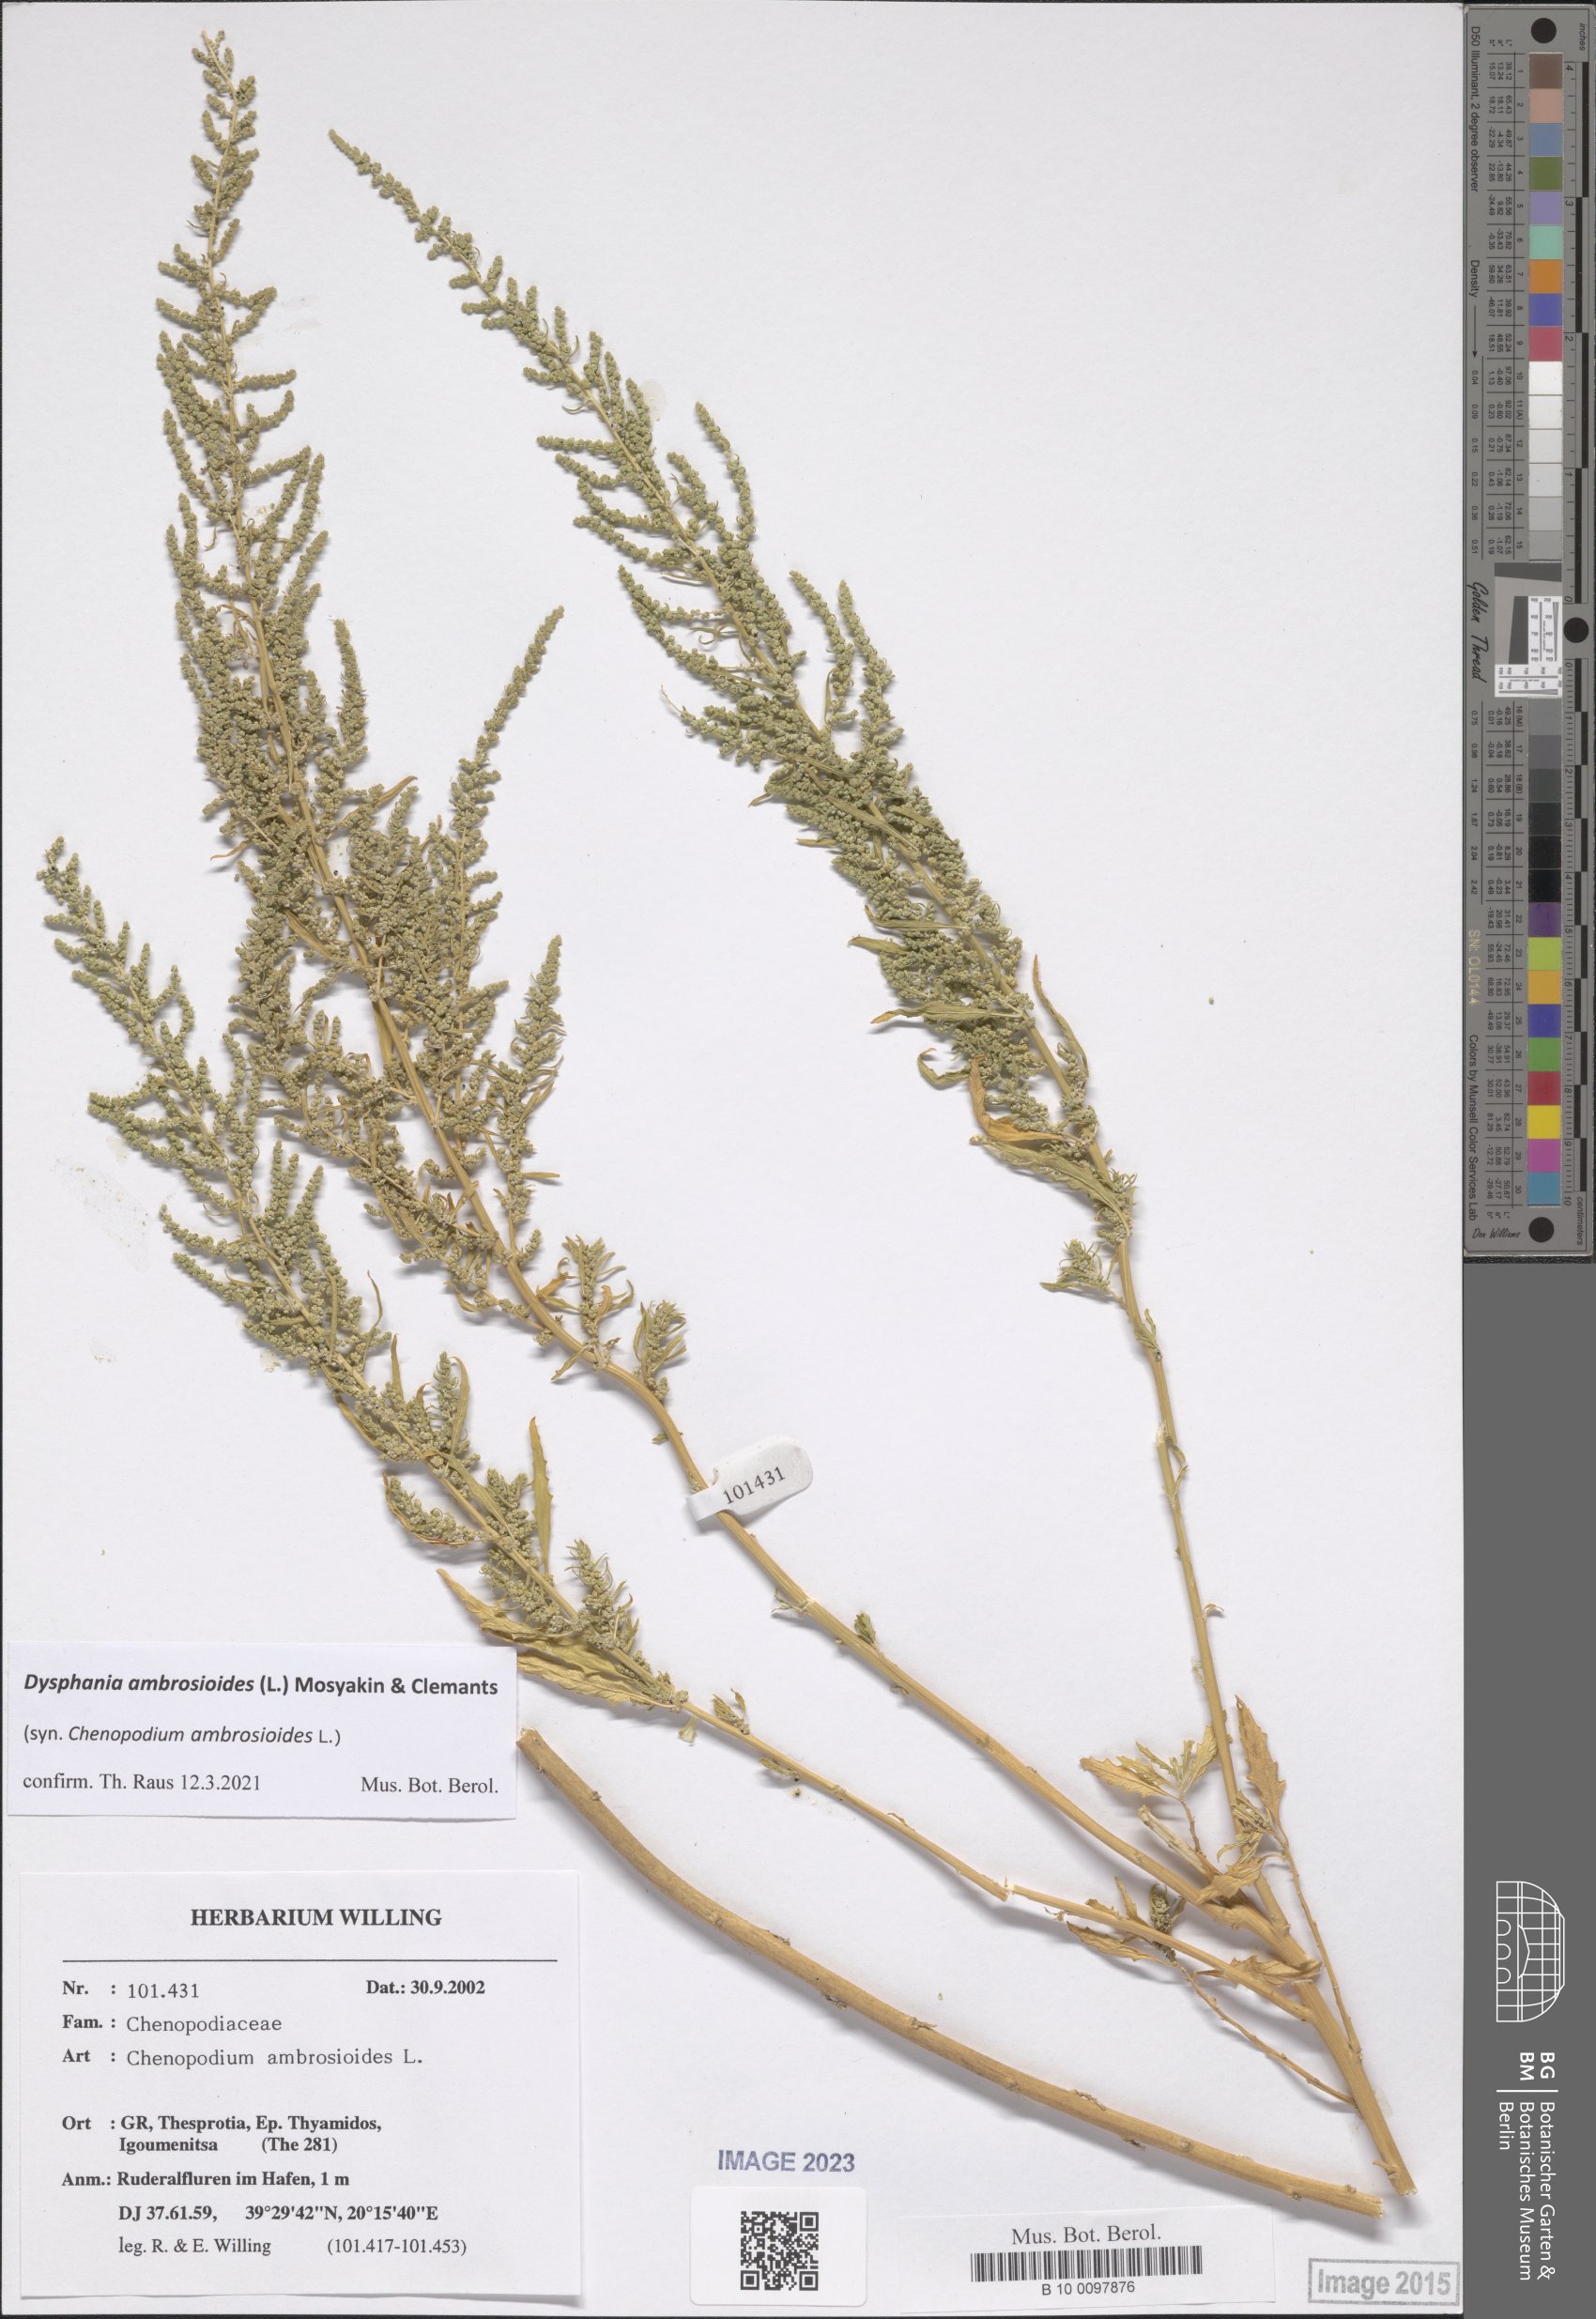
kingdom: Plantae
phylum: Tracheophyta
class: Magnoliopsida
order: Caryophyllales
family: Amaranthaceae
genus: Dysphania
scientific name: Dysphania ambrosioides
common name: Wormseed
